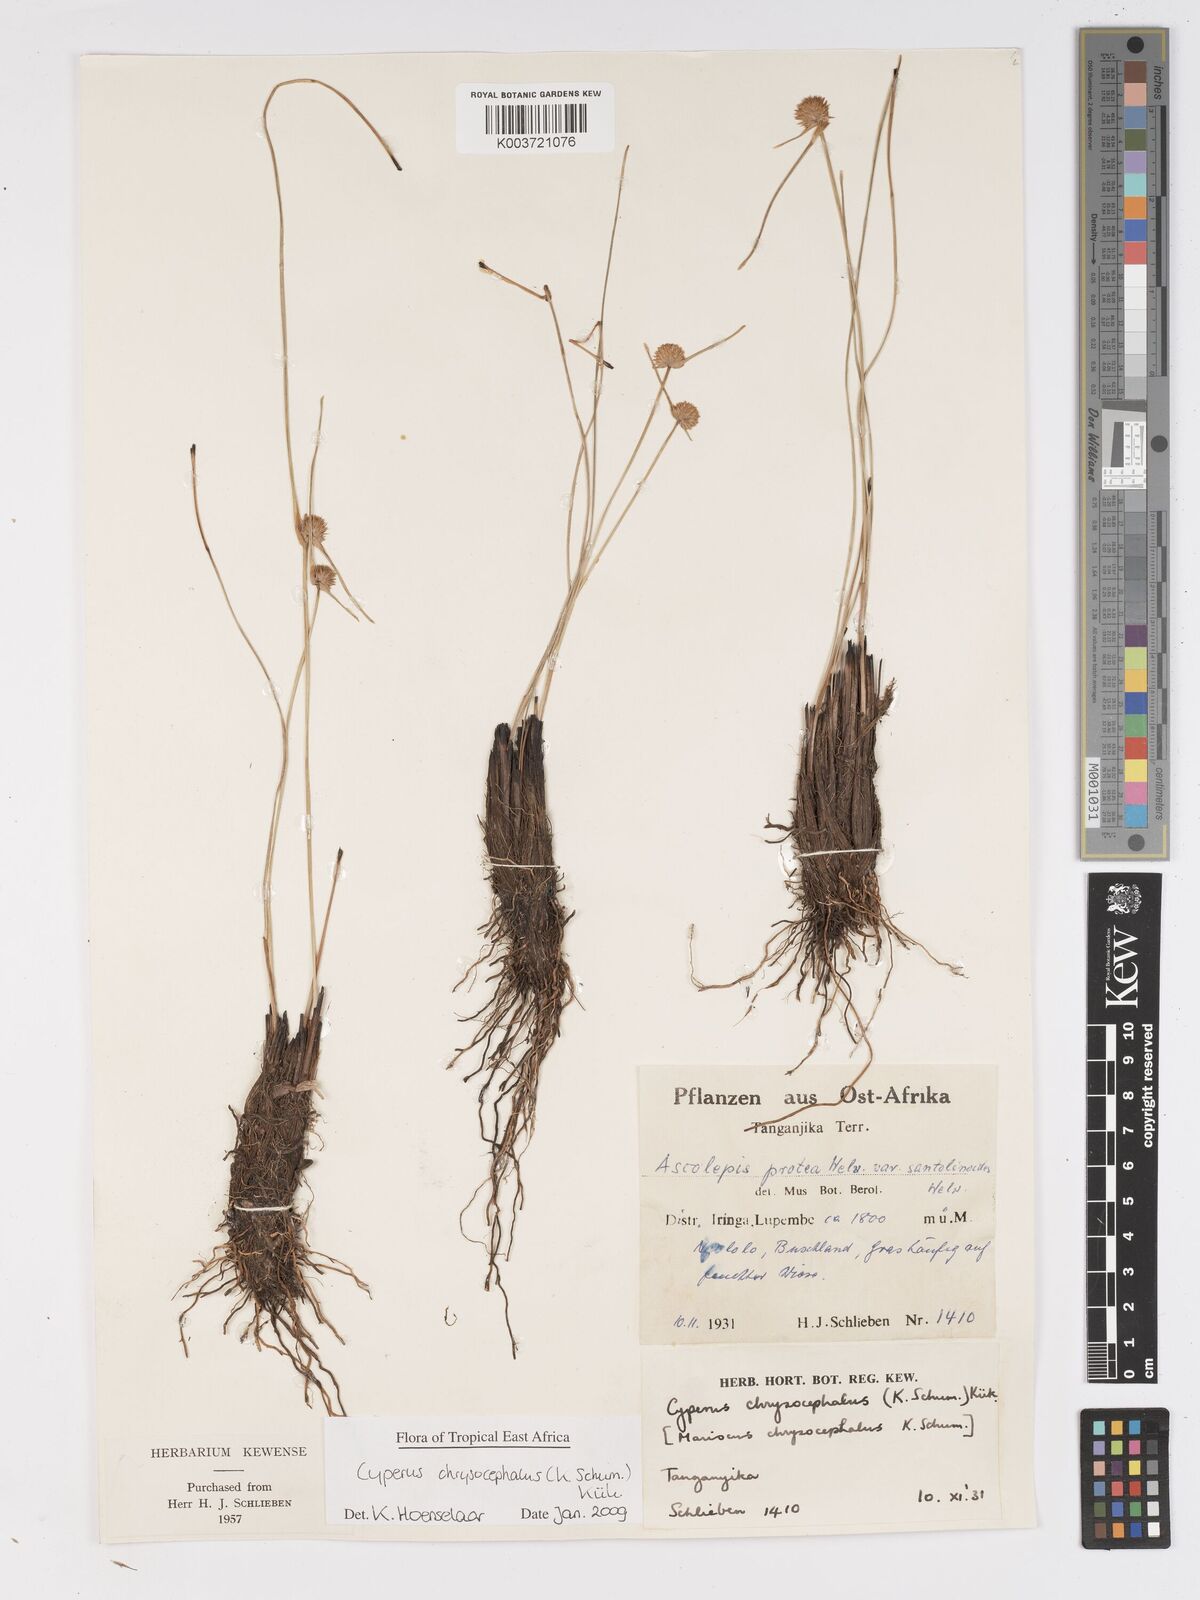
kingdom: Plantae
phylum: Tracheophyta
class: Liliopsida
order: Poales
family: Cyperaceae
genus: Cyperus
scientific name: Cyperus chrysocephalus
